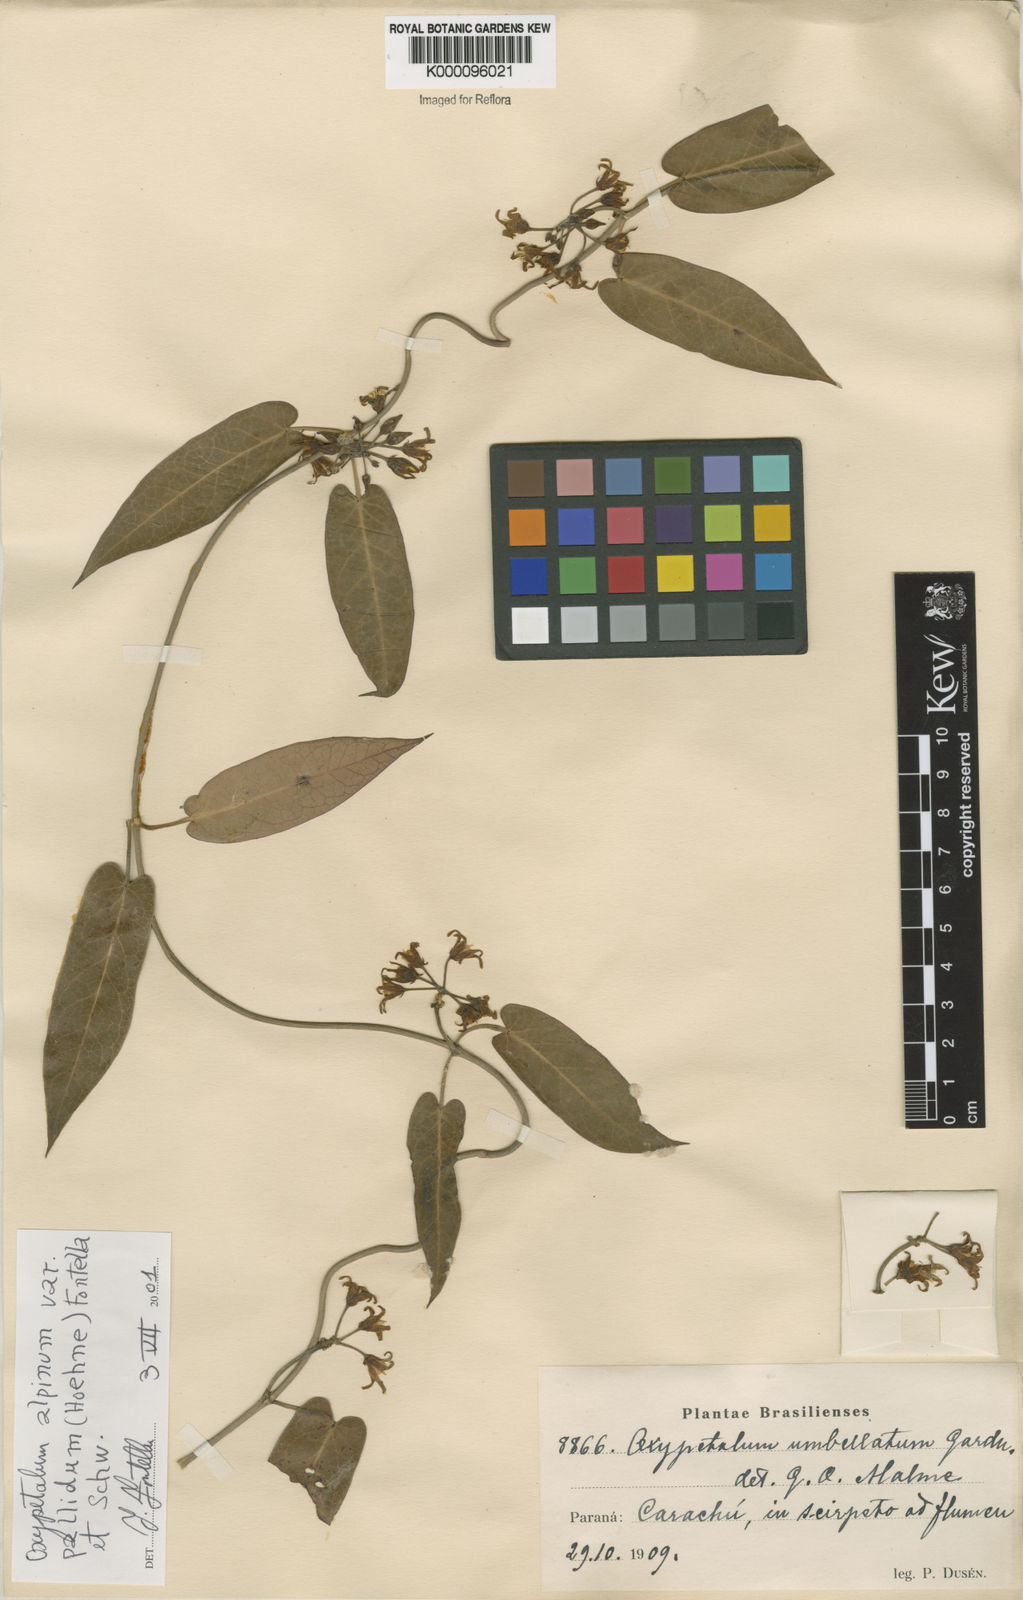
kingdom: Plantae
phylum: Tracheophyta
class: Magnoliopsida
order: Gentianales
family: Apocynaceae
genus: Oxypetalum
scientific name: Oxypetalum alpinum
